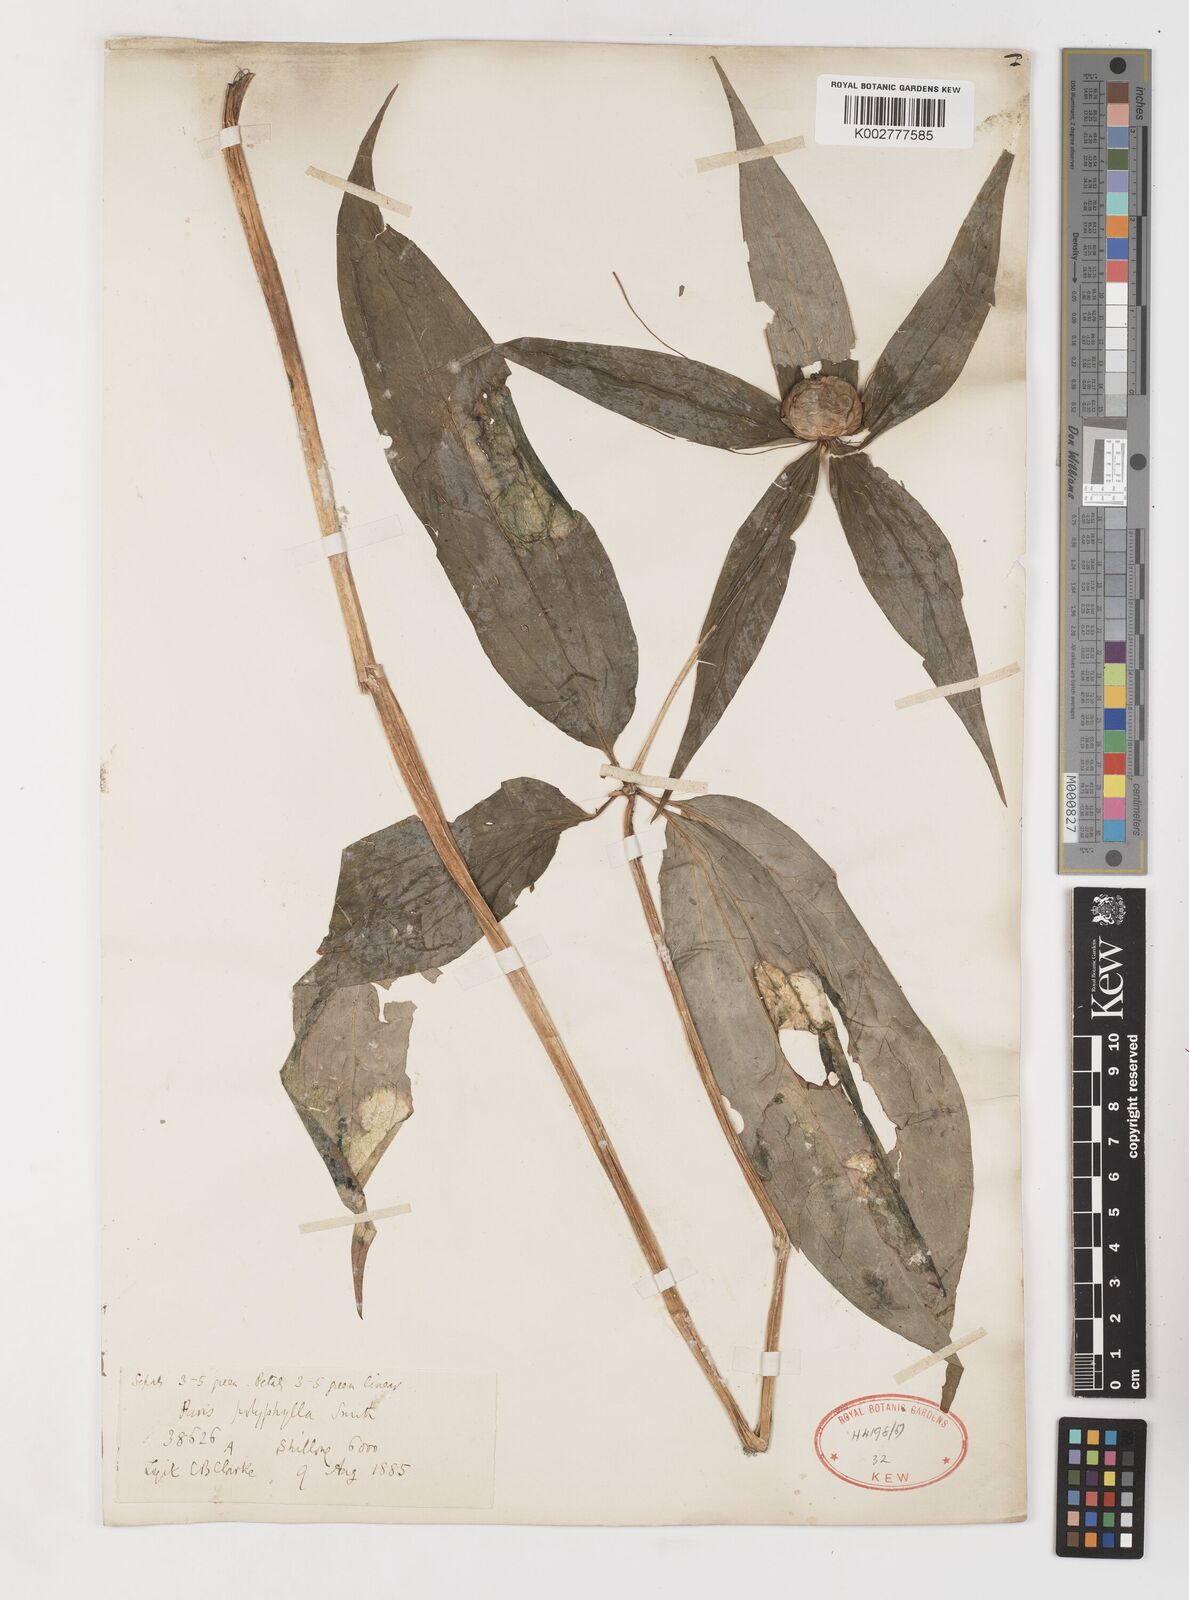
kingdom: Plantae
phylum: Tracheophyta
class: Liliopsida
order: Liliales
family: Melanthiaceae
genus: Paris
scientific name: Paris polyphylla
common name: Love apple
